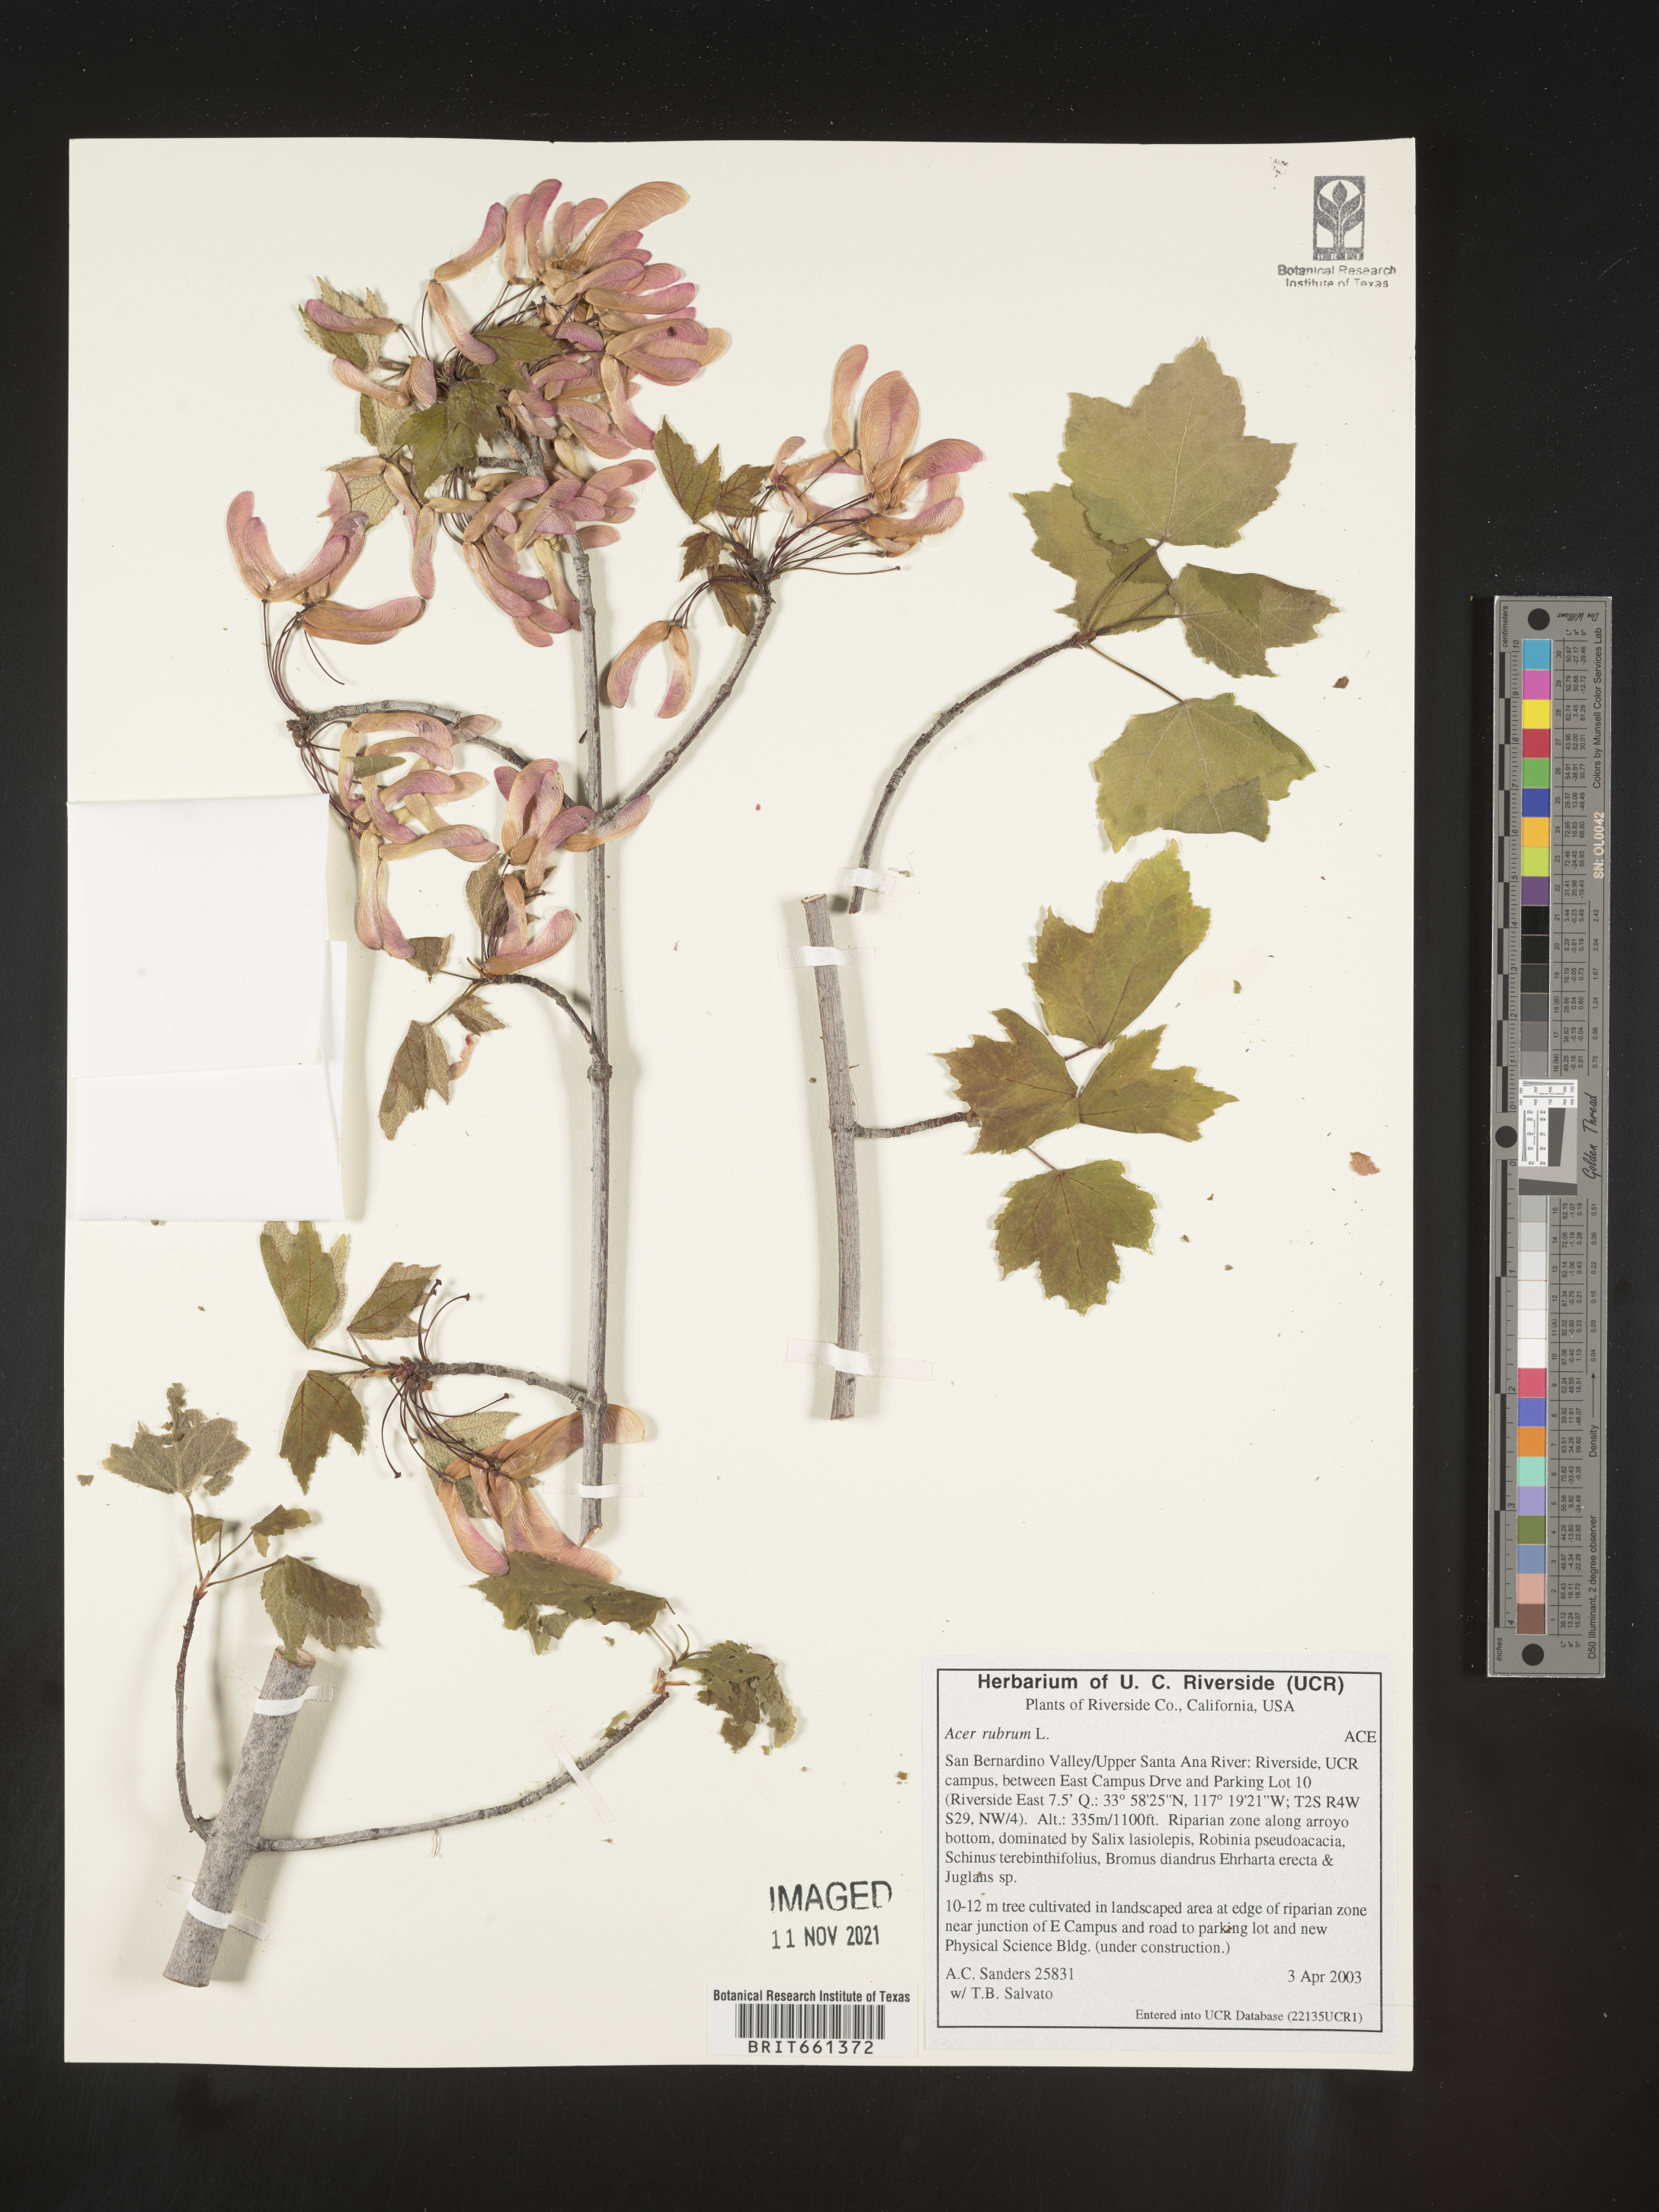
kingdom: Plantae
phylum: Tracheophyta
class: Magnoliopsida
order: Sapindales
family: Sapindaceae
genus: Acer
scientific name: Acer rubrum
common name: Red maple
